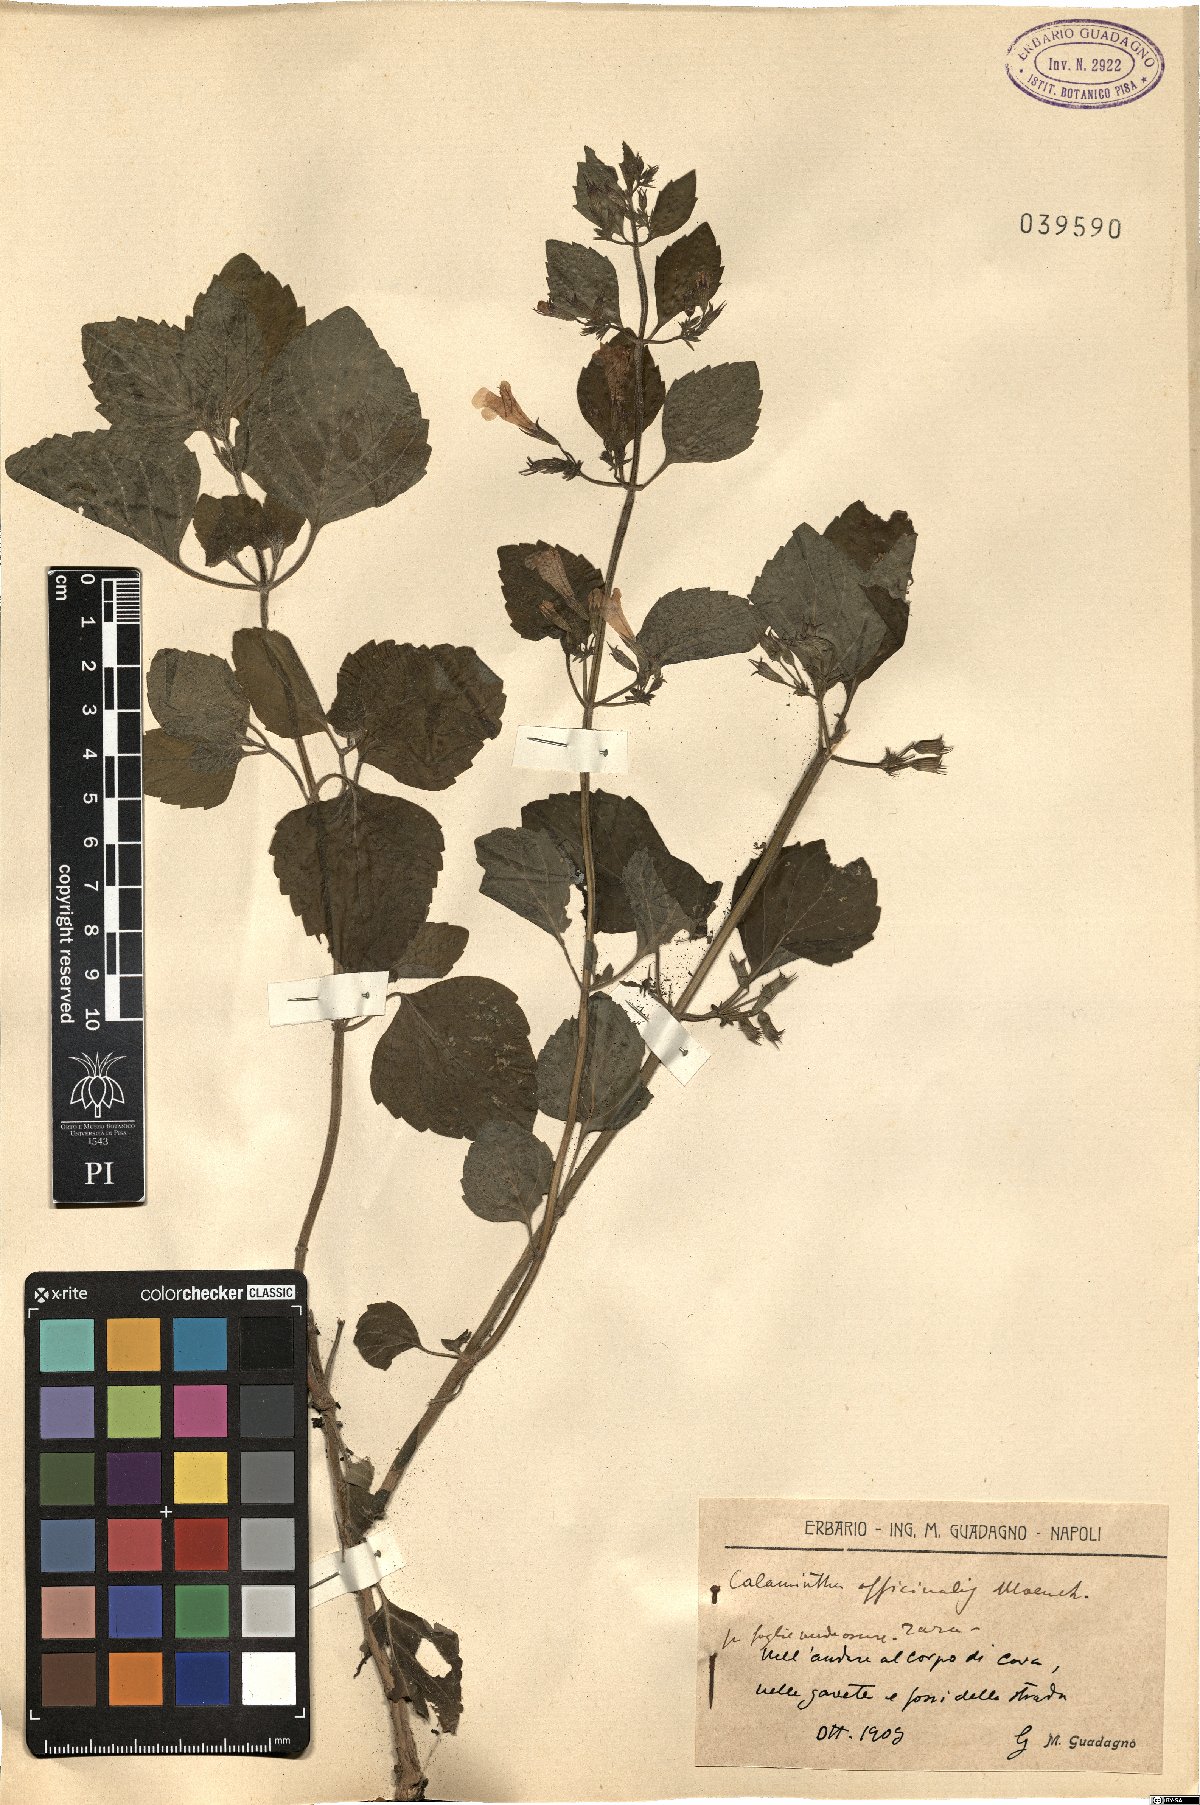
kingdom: Plantae
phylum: Tracheophyta
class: Magnoliopsida
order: Lamiales
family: Lamiaceae
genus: Clinopodium
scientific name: Clinopodium nepeta
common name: Lesser calamint
